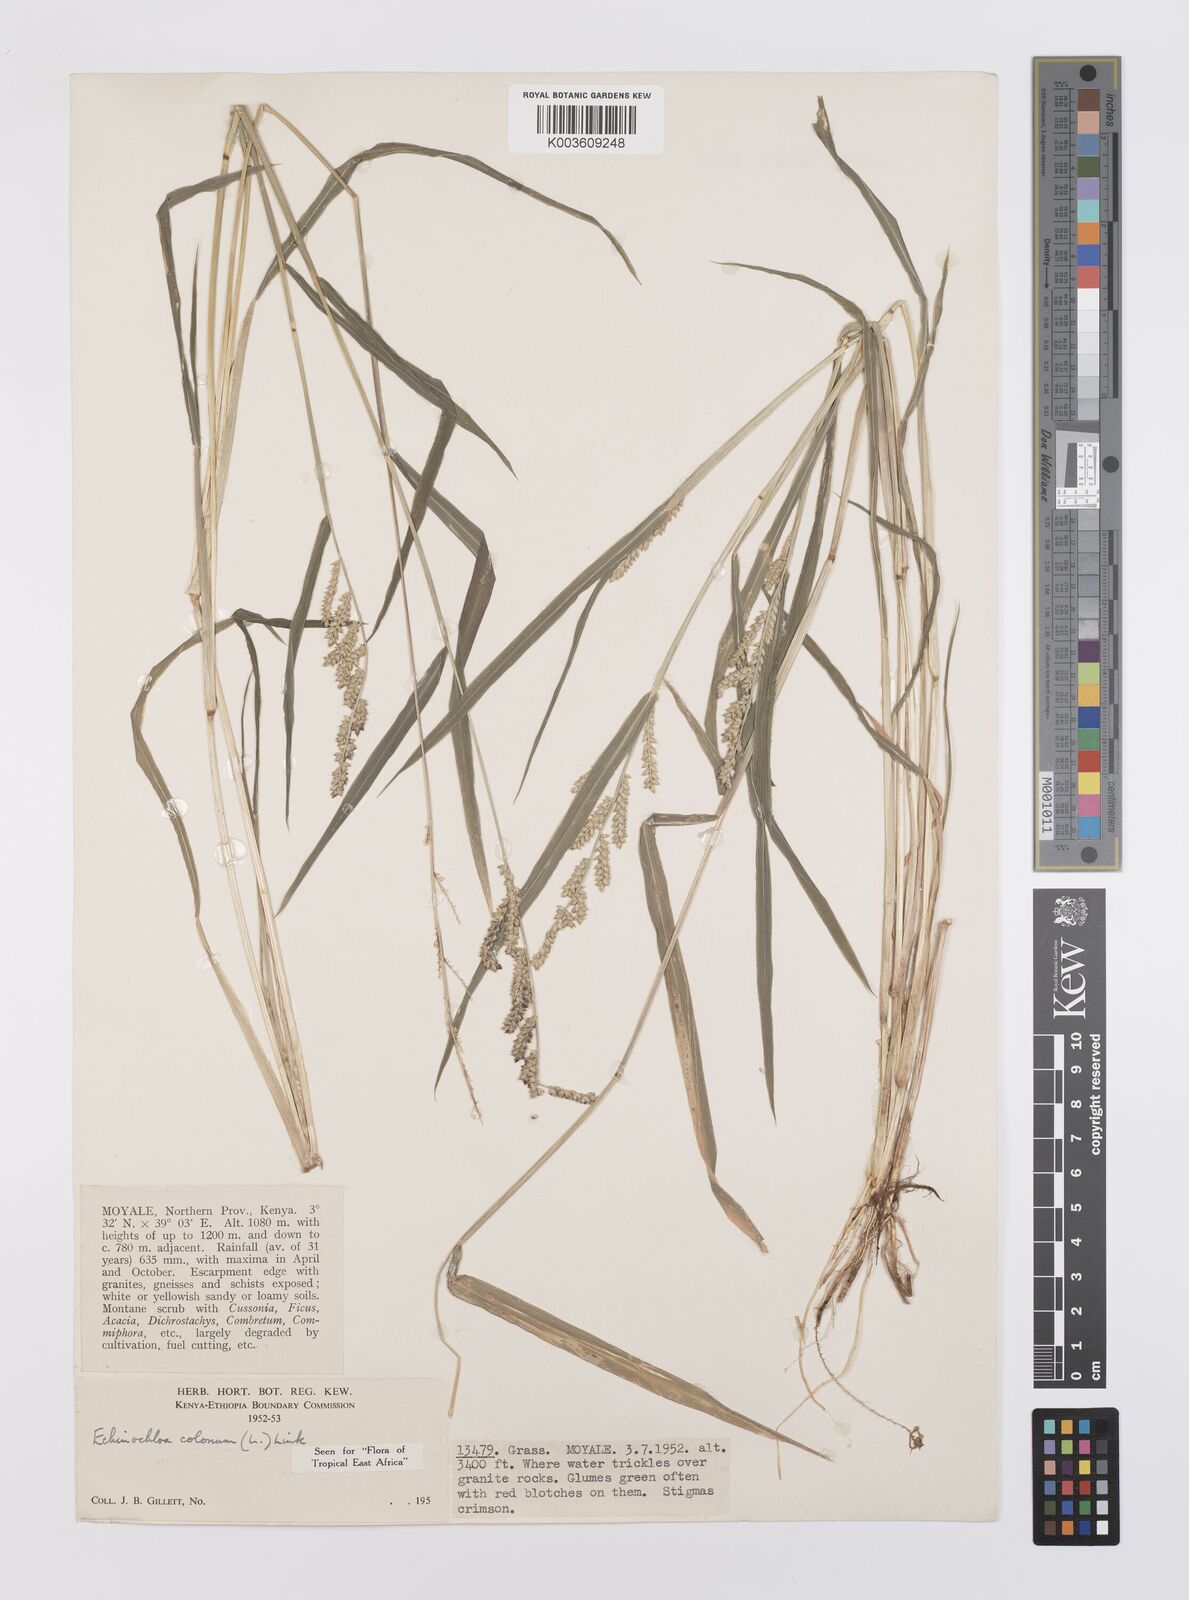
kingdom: Plantae
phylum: Tracheophyta
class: Liliopsida
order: Poales
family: Poaceae
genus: Echinochloa
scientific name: Echinochloa colonum
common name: Jungle rice
